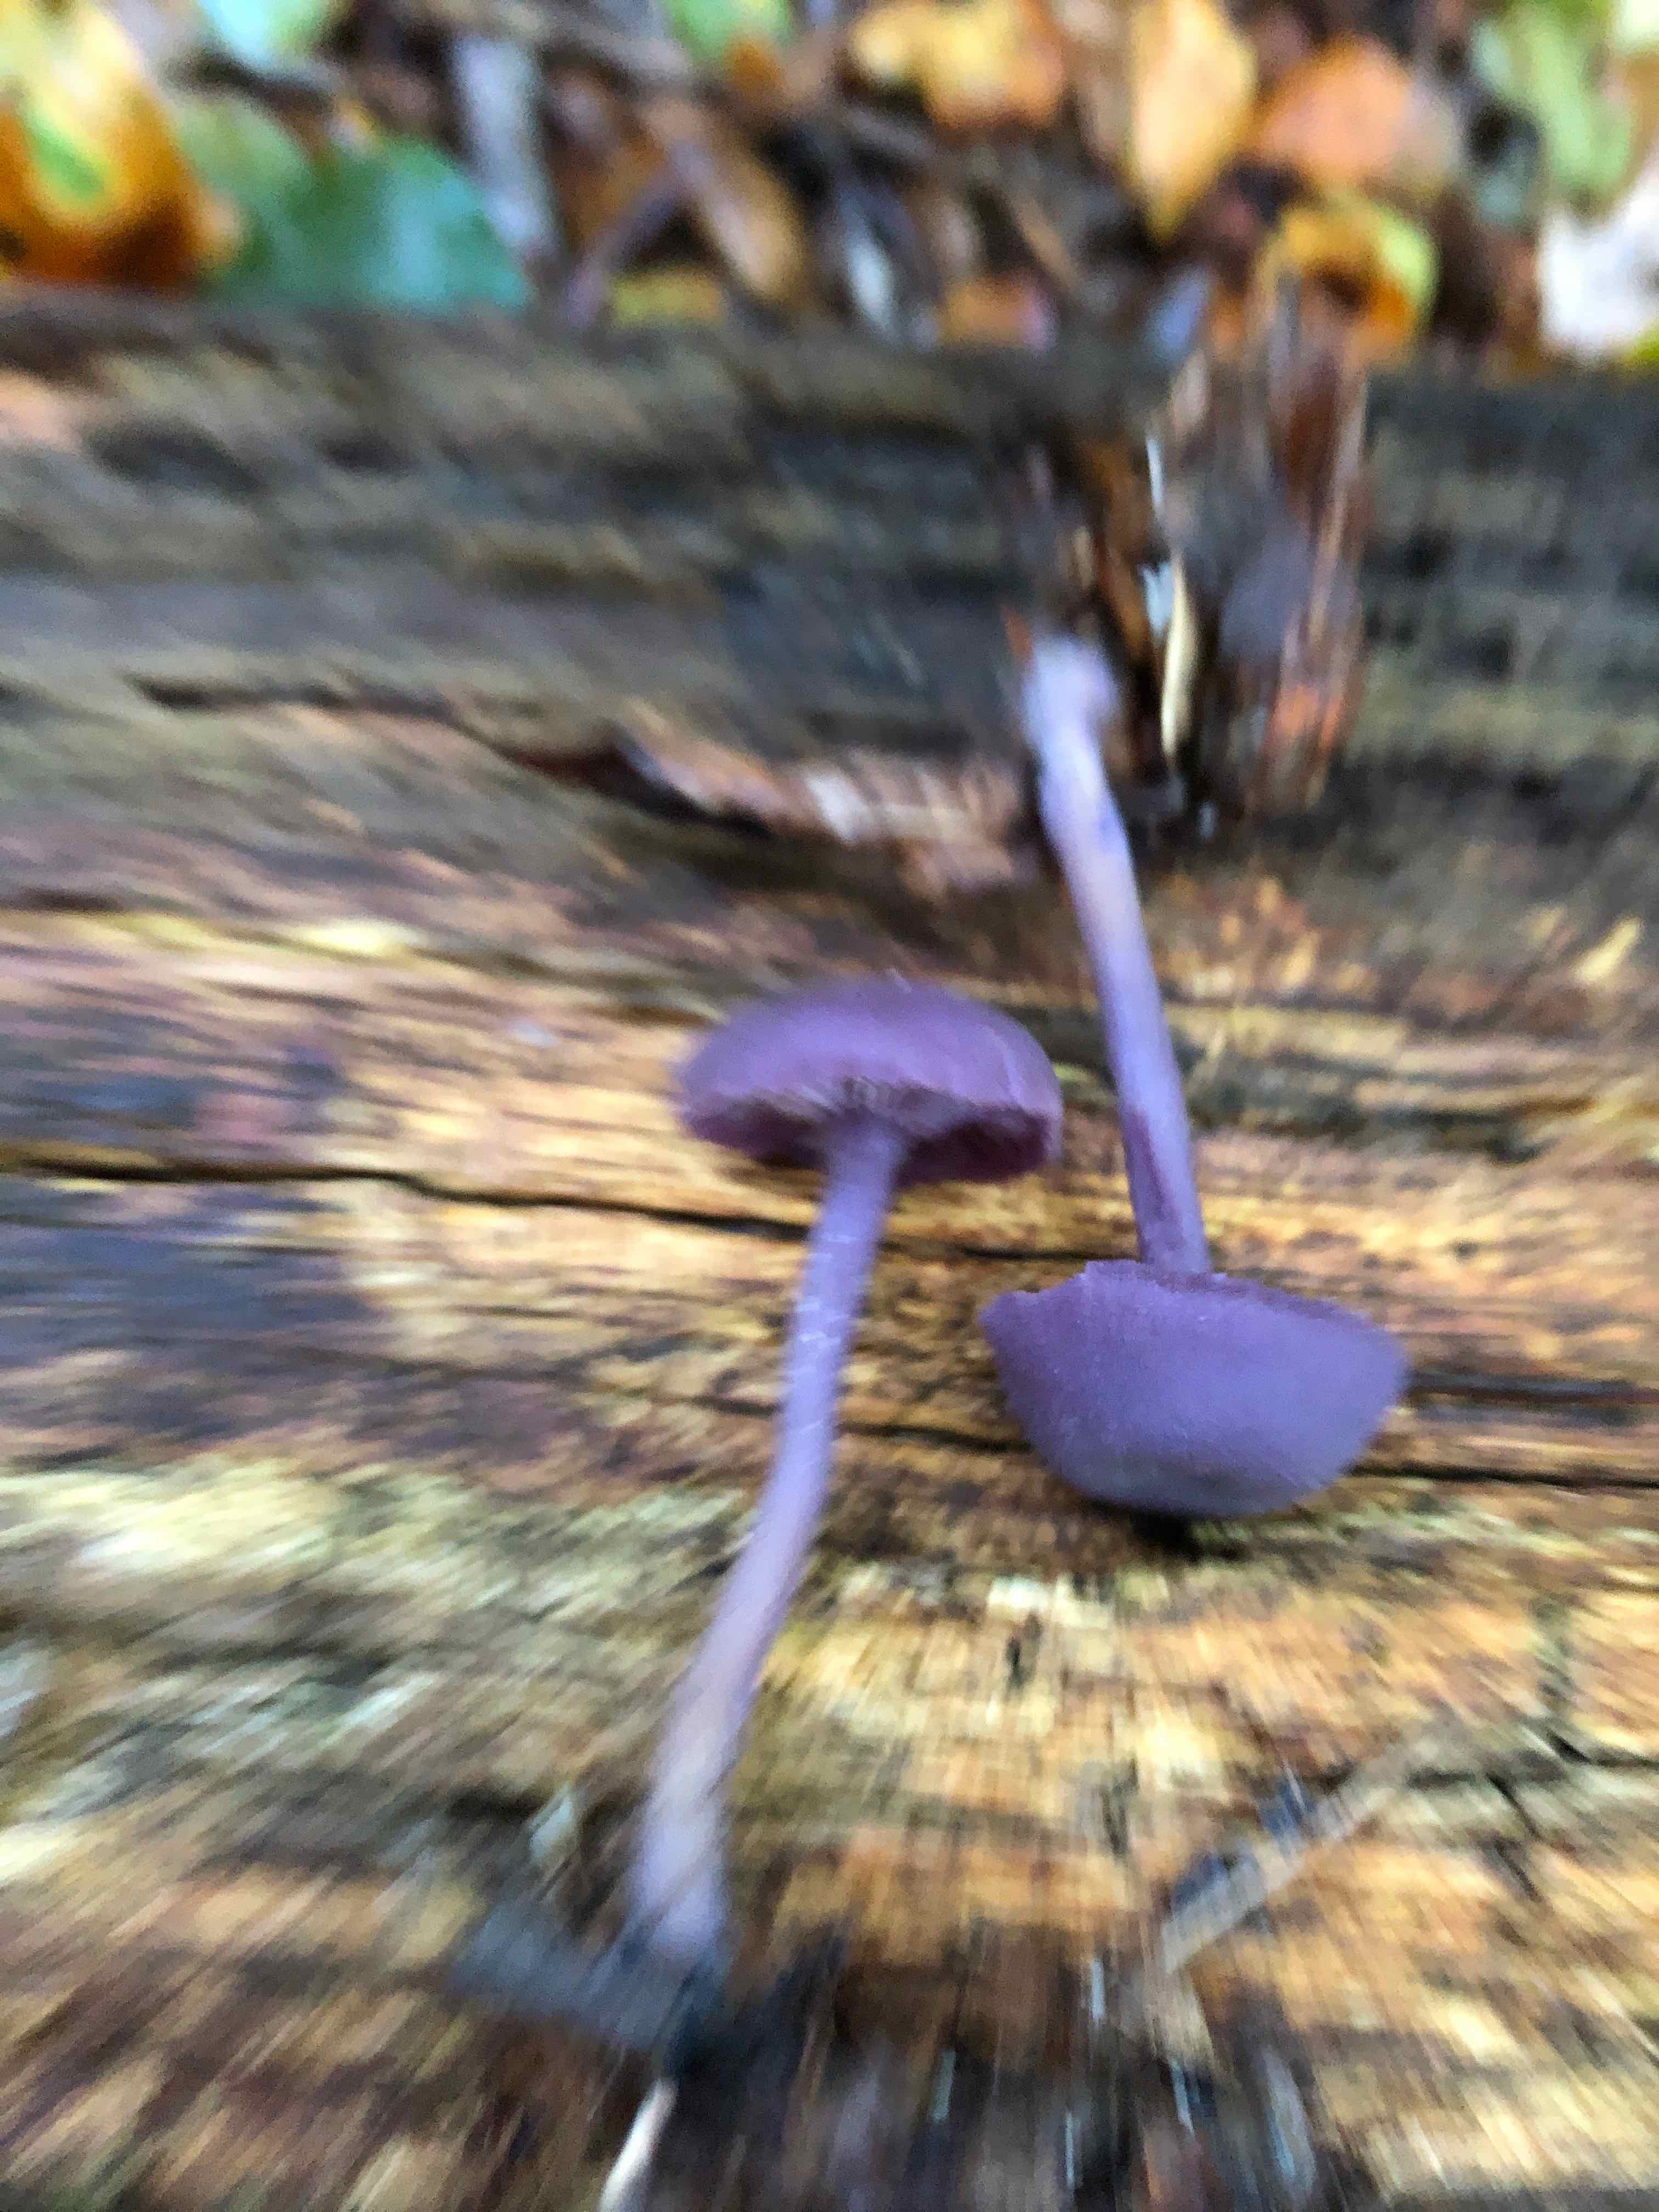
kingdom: Fungi
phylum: Basidiomycota
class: Agaricomycetes
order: Agaricales
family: Hydnangiaceae
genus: Laccaria
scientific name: Laccaria amethystina
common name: violet ametysthat
